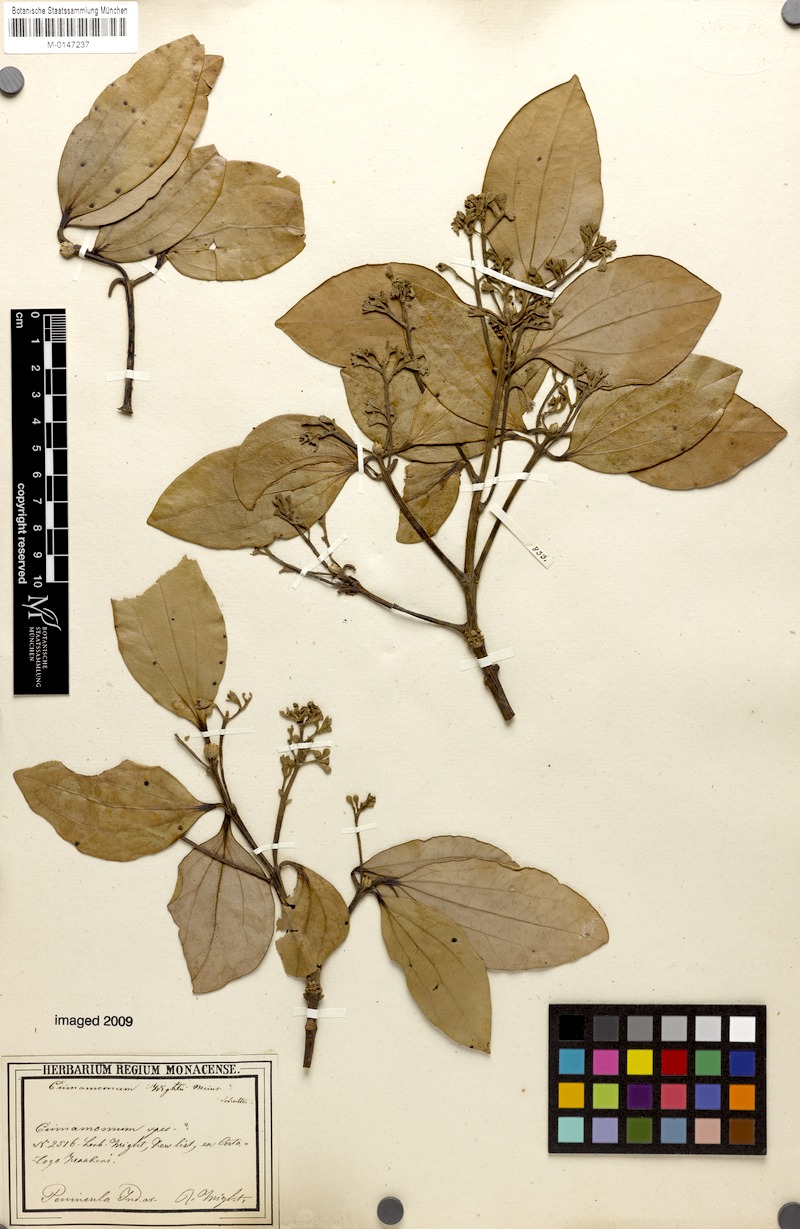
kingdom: Plantae
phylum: Tracheophyta
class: Magnoliopsida
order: Laurales
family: Lauraceae
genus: Cinnamomum
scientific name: Cinnamomum wightii
